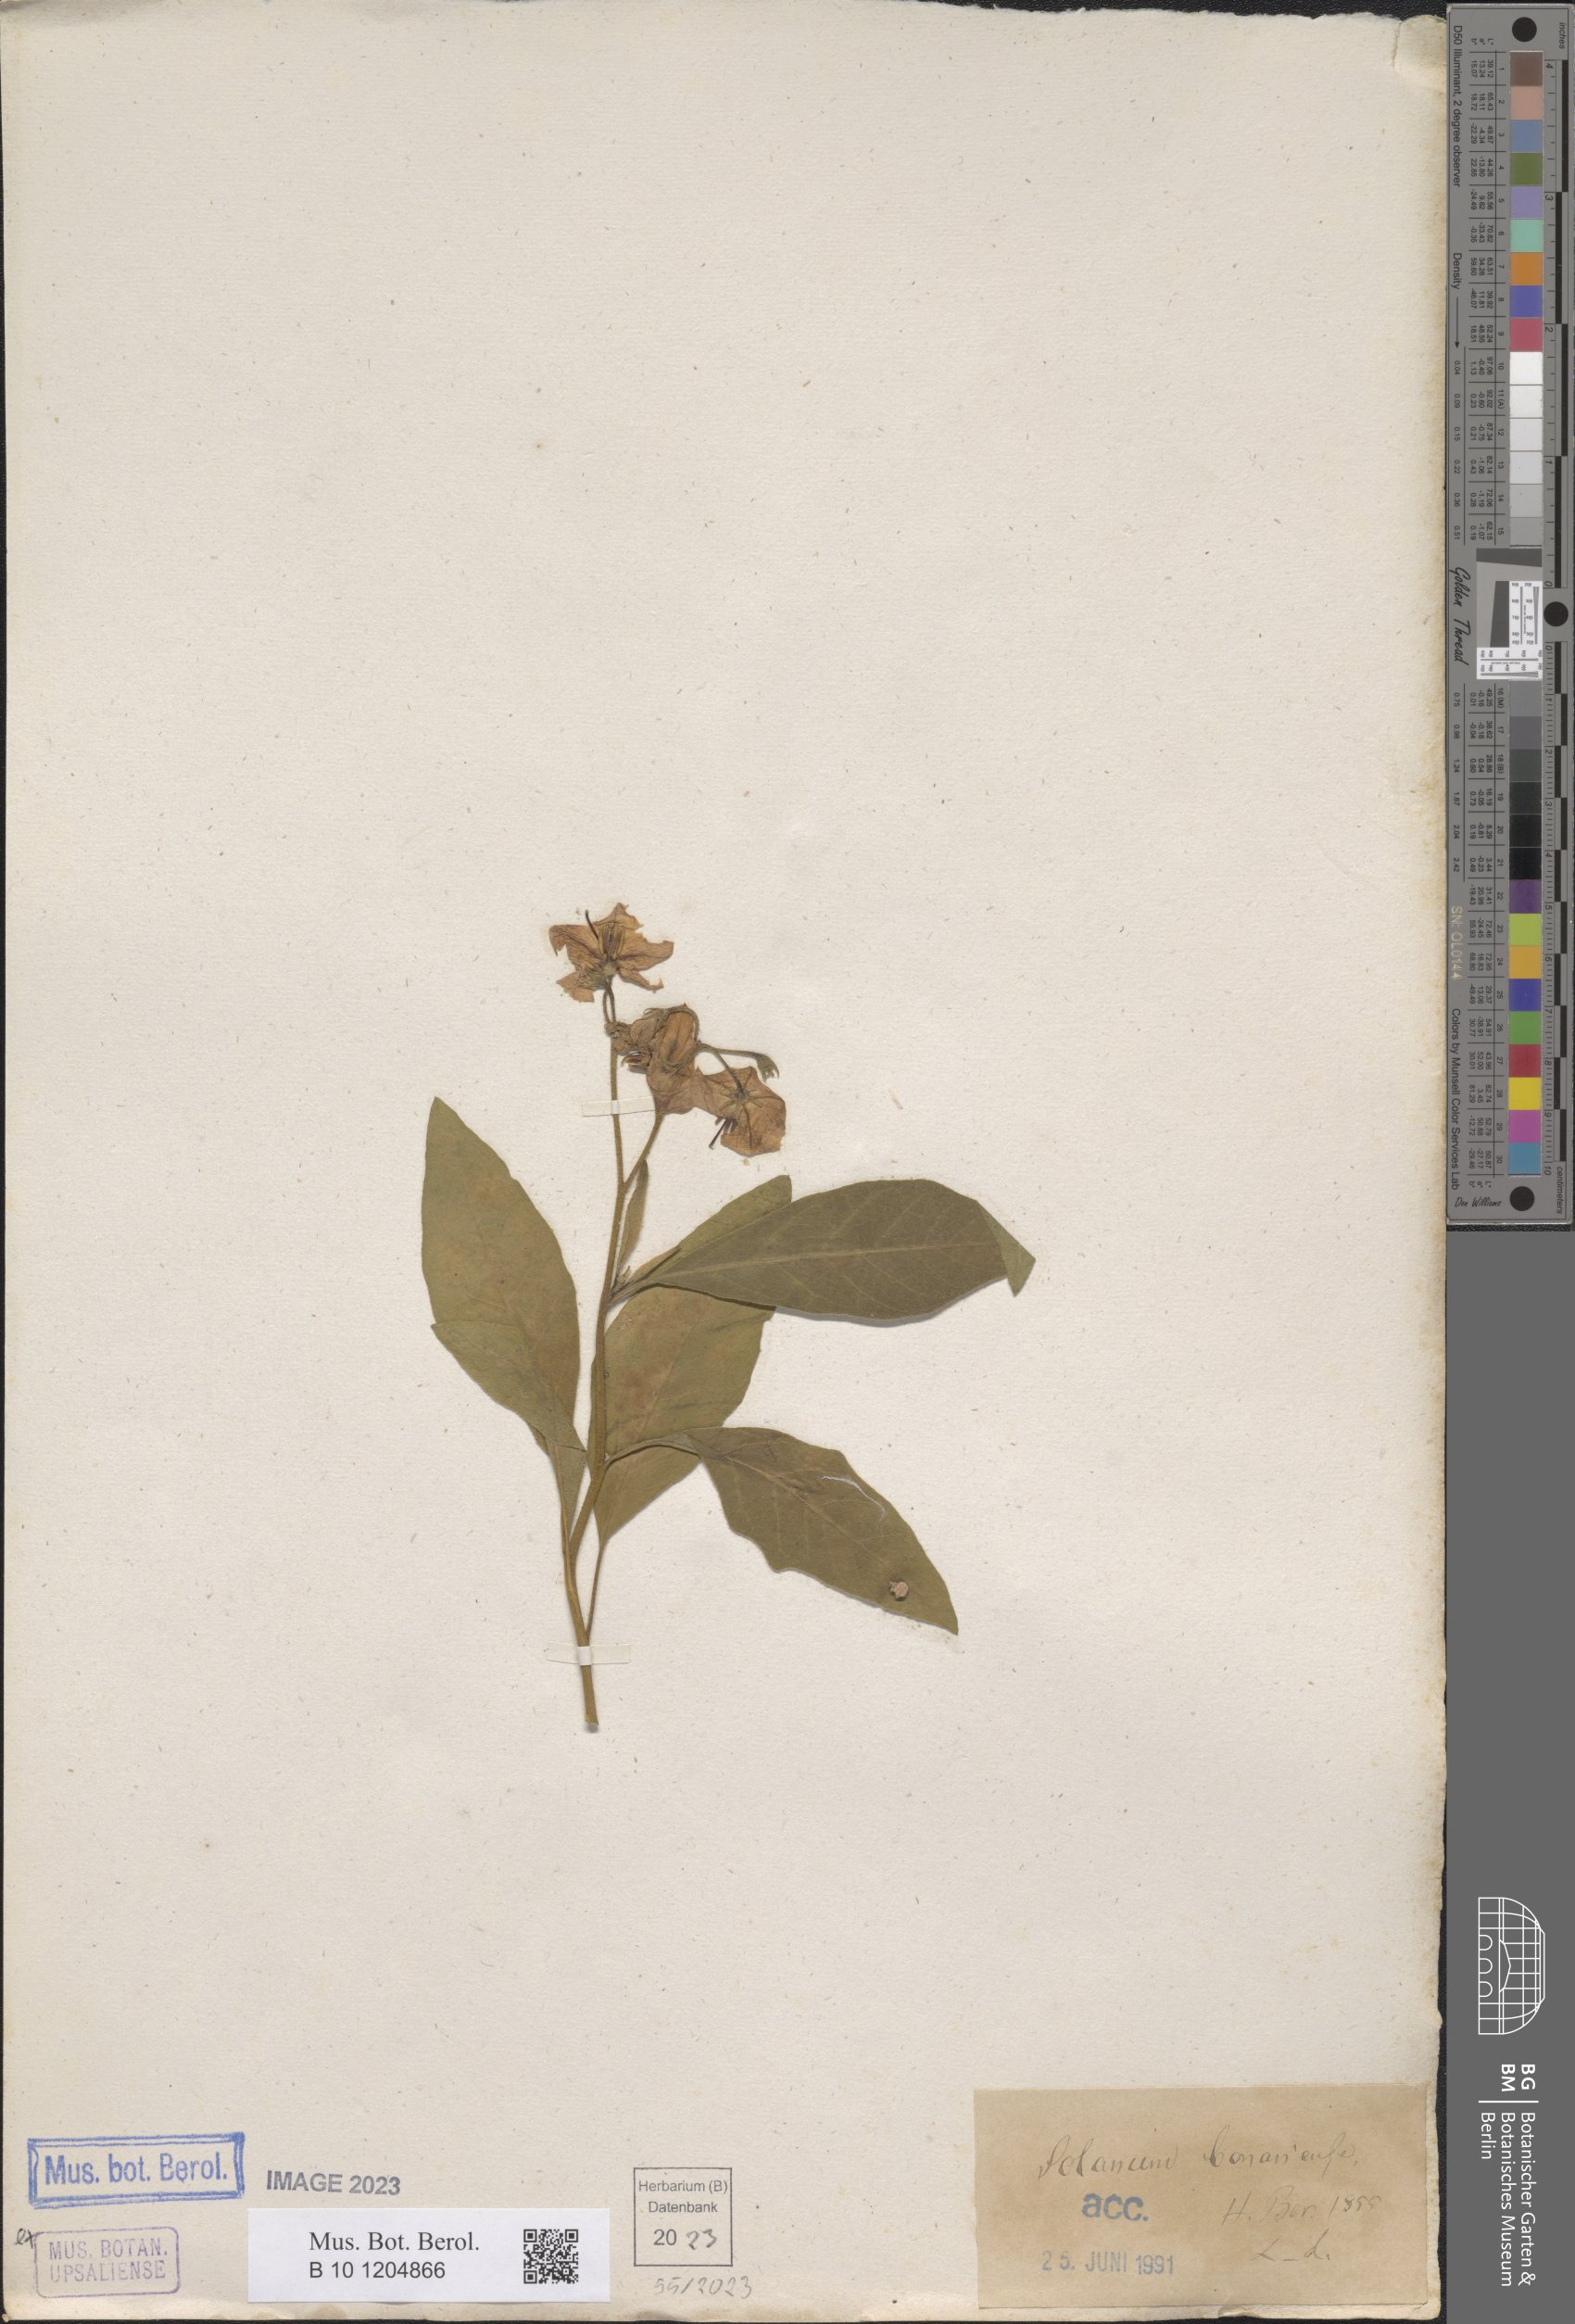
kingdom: Plantae
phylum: Tracheophyta
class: Magnoliopsida
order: Solanales
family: Solanaceae
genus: Solanum
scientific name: Solanum bonariense
